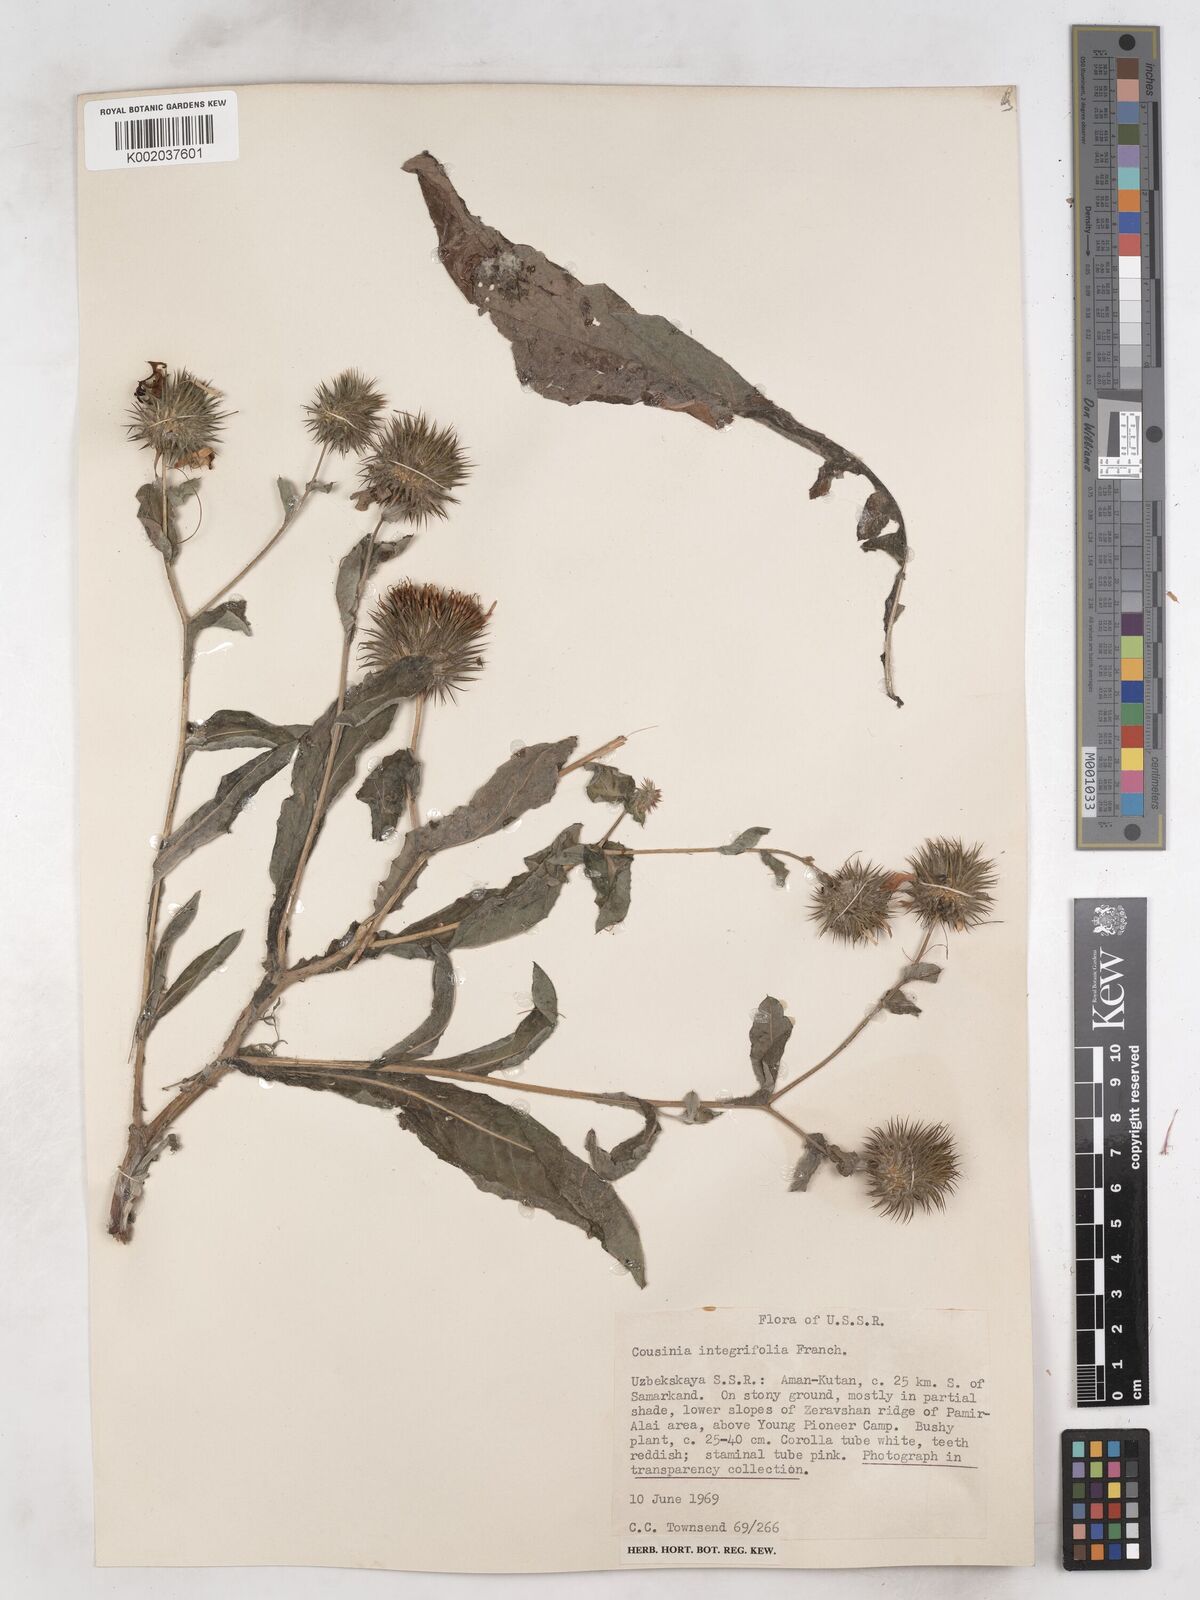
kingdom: Plantae
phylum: Tracheophyta
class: Magnoliopsida
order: Asterales
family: Asteraceae
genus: Cousinia
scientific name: Cousinia integrifolia
